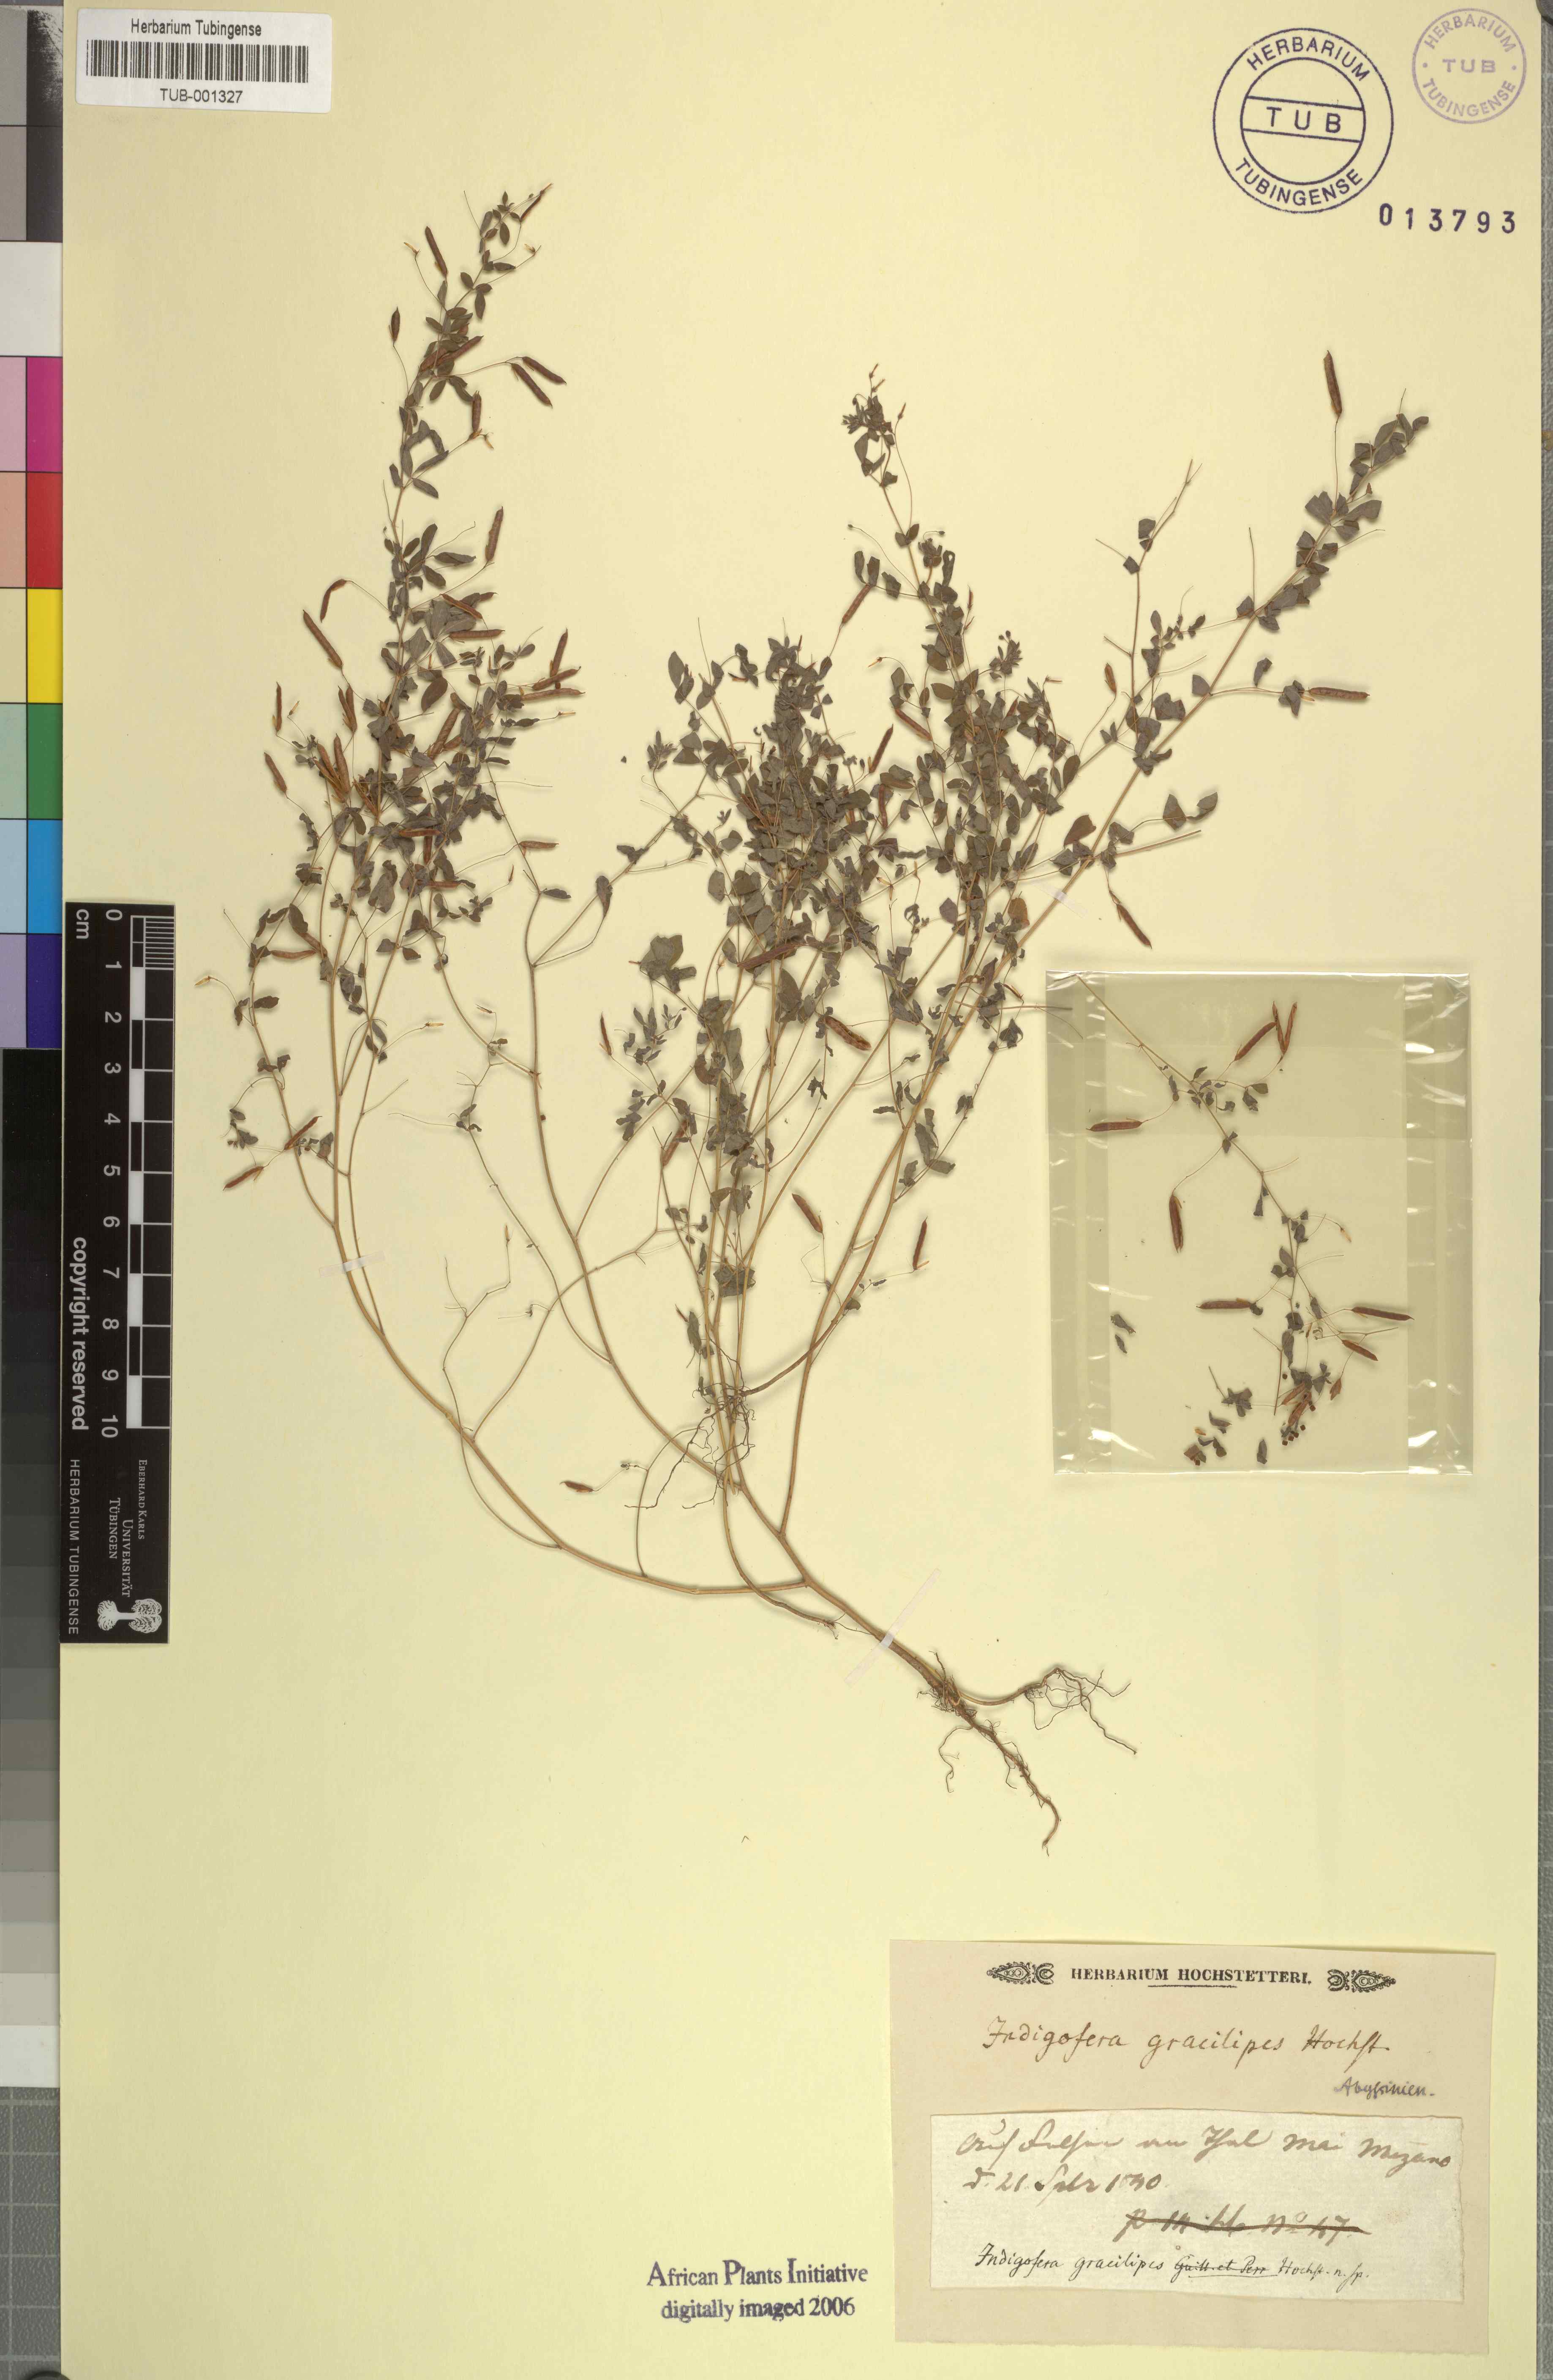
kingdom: Plantae
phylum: Tracheophyta
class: Magnoliopsida
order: Fabales
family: Fabaceae
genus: Indigofera
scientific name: Indigofera
